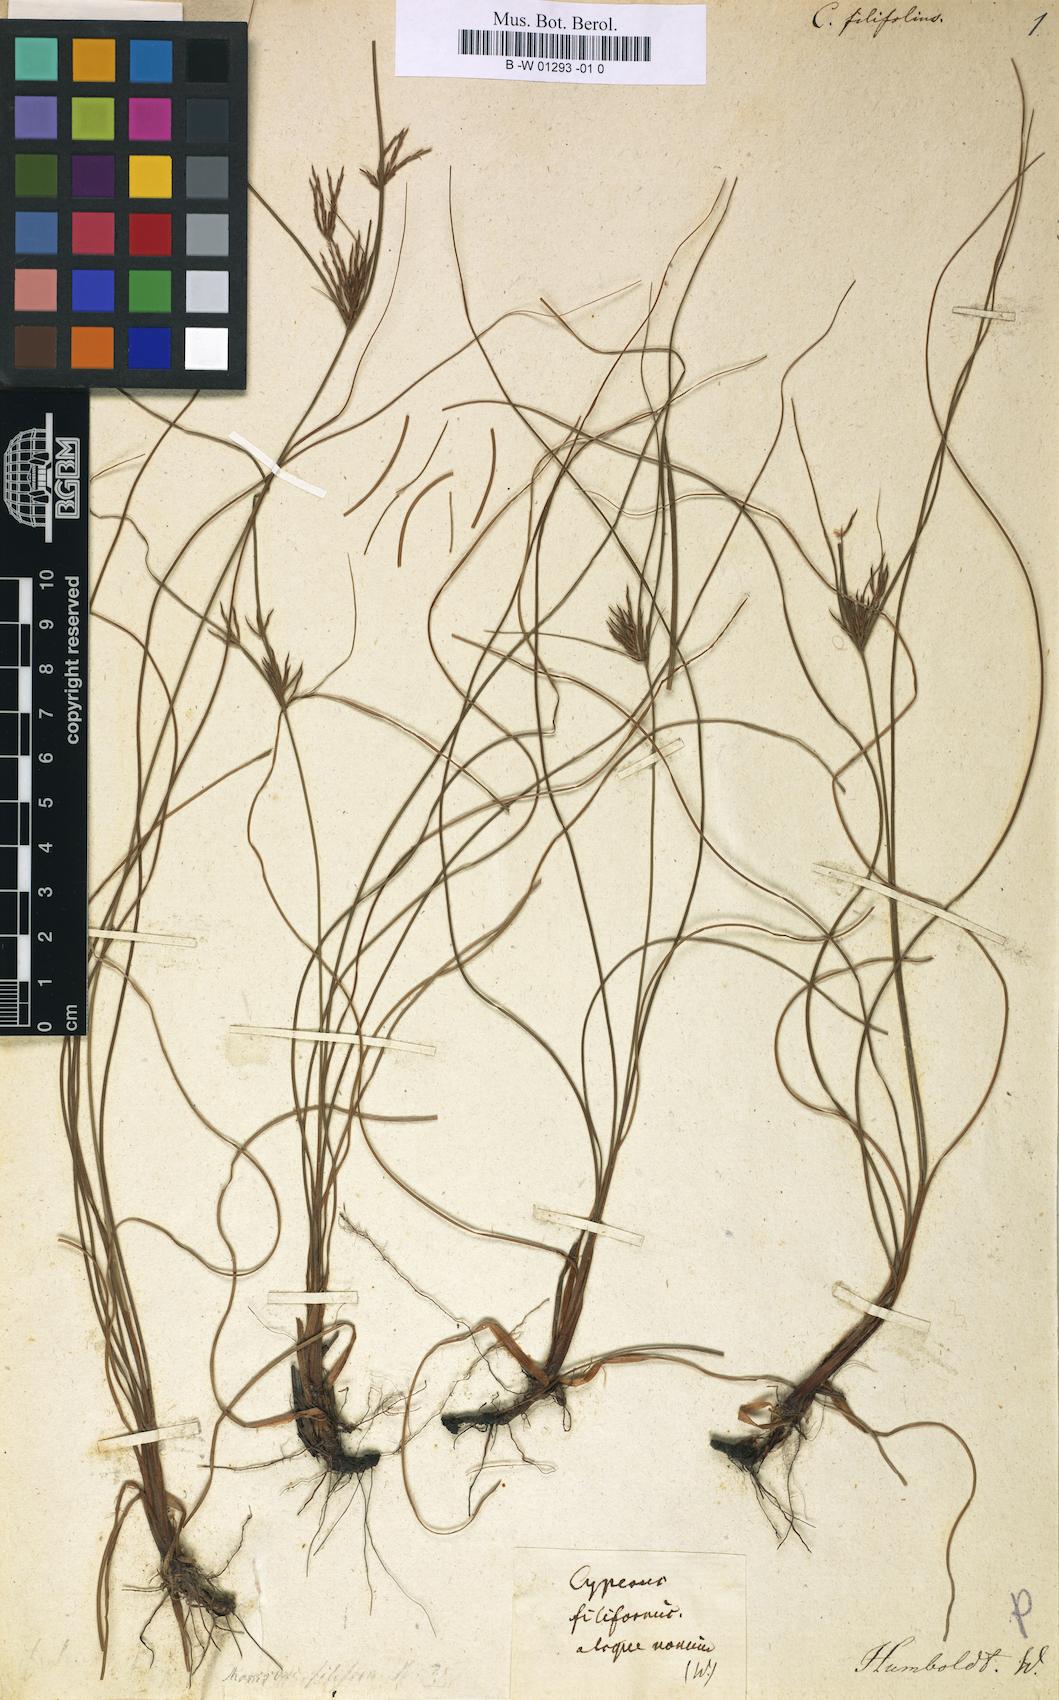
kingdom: Plantae
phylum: Tracheophyta
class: Liliopsida
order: Poales
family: Cyperaceae
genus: Cyperus
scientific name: Cyperus filifolius
